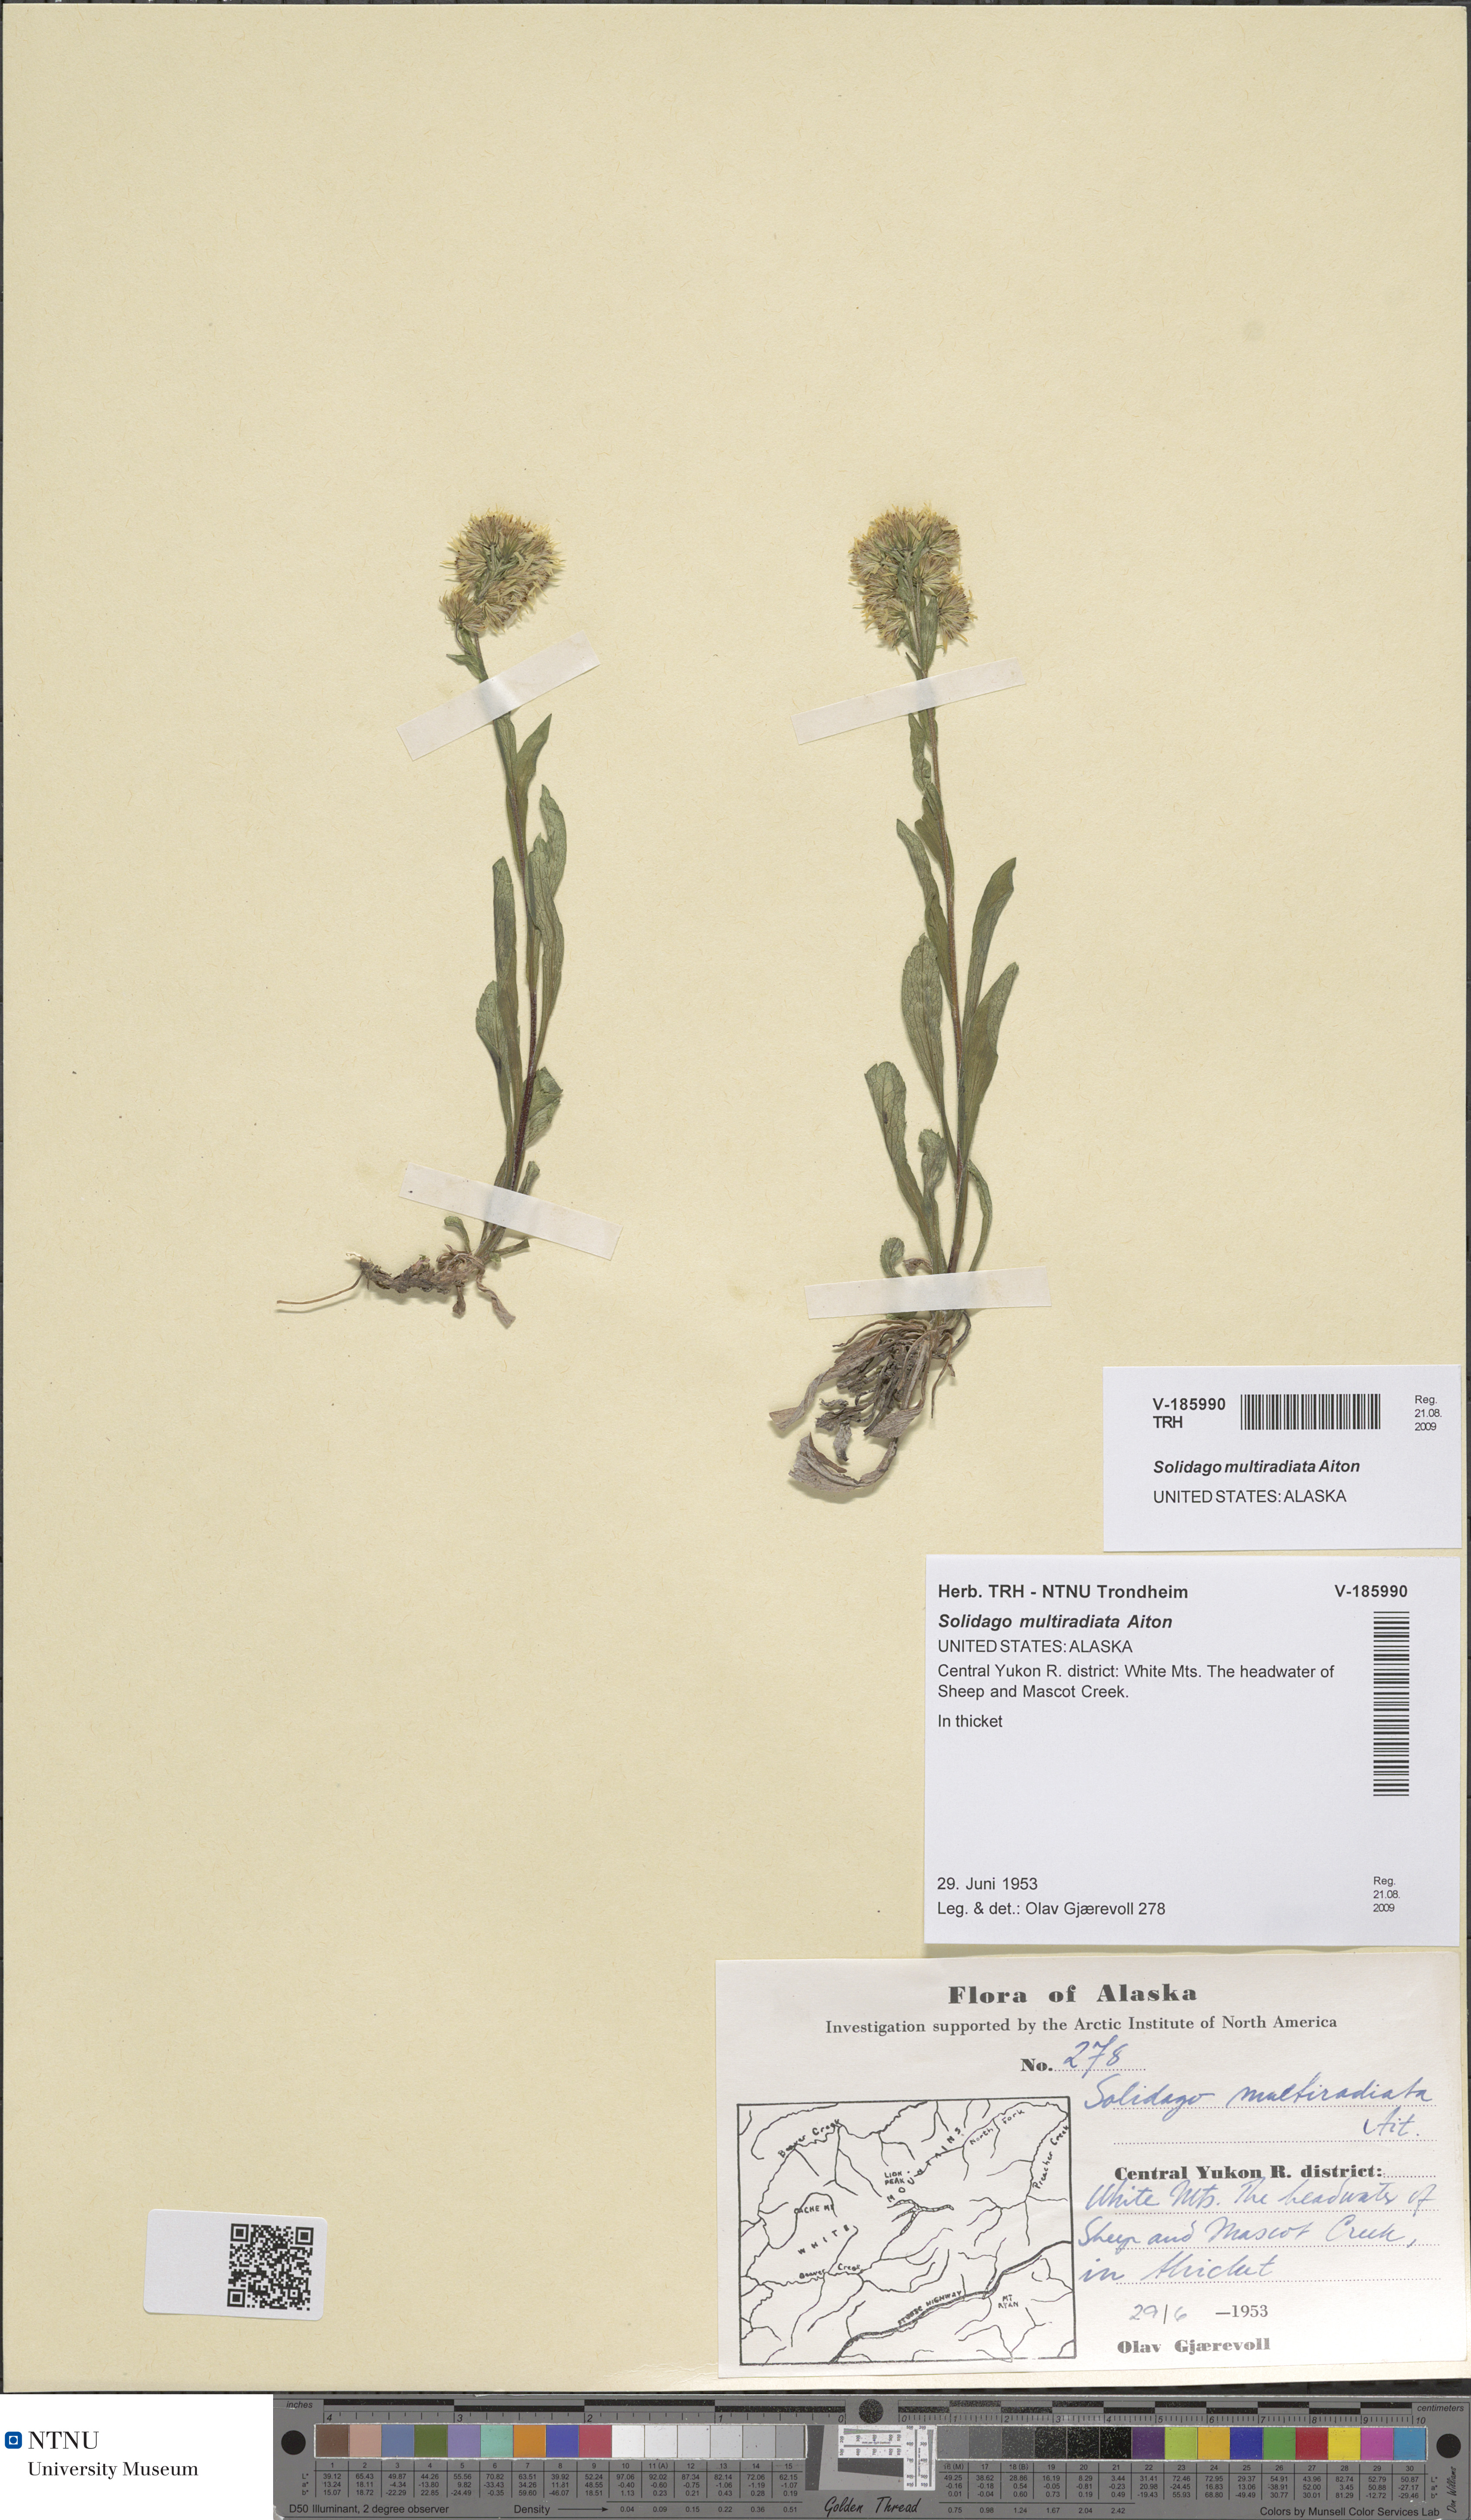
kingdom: Plantae
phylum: Tracheophyta
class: Magnoliopsida
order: Asterales
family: Asteraceae
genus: Solidago
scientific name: Solidago multiradiata
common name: Northern goldenrod
